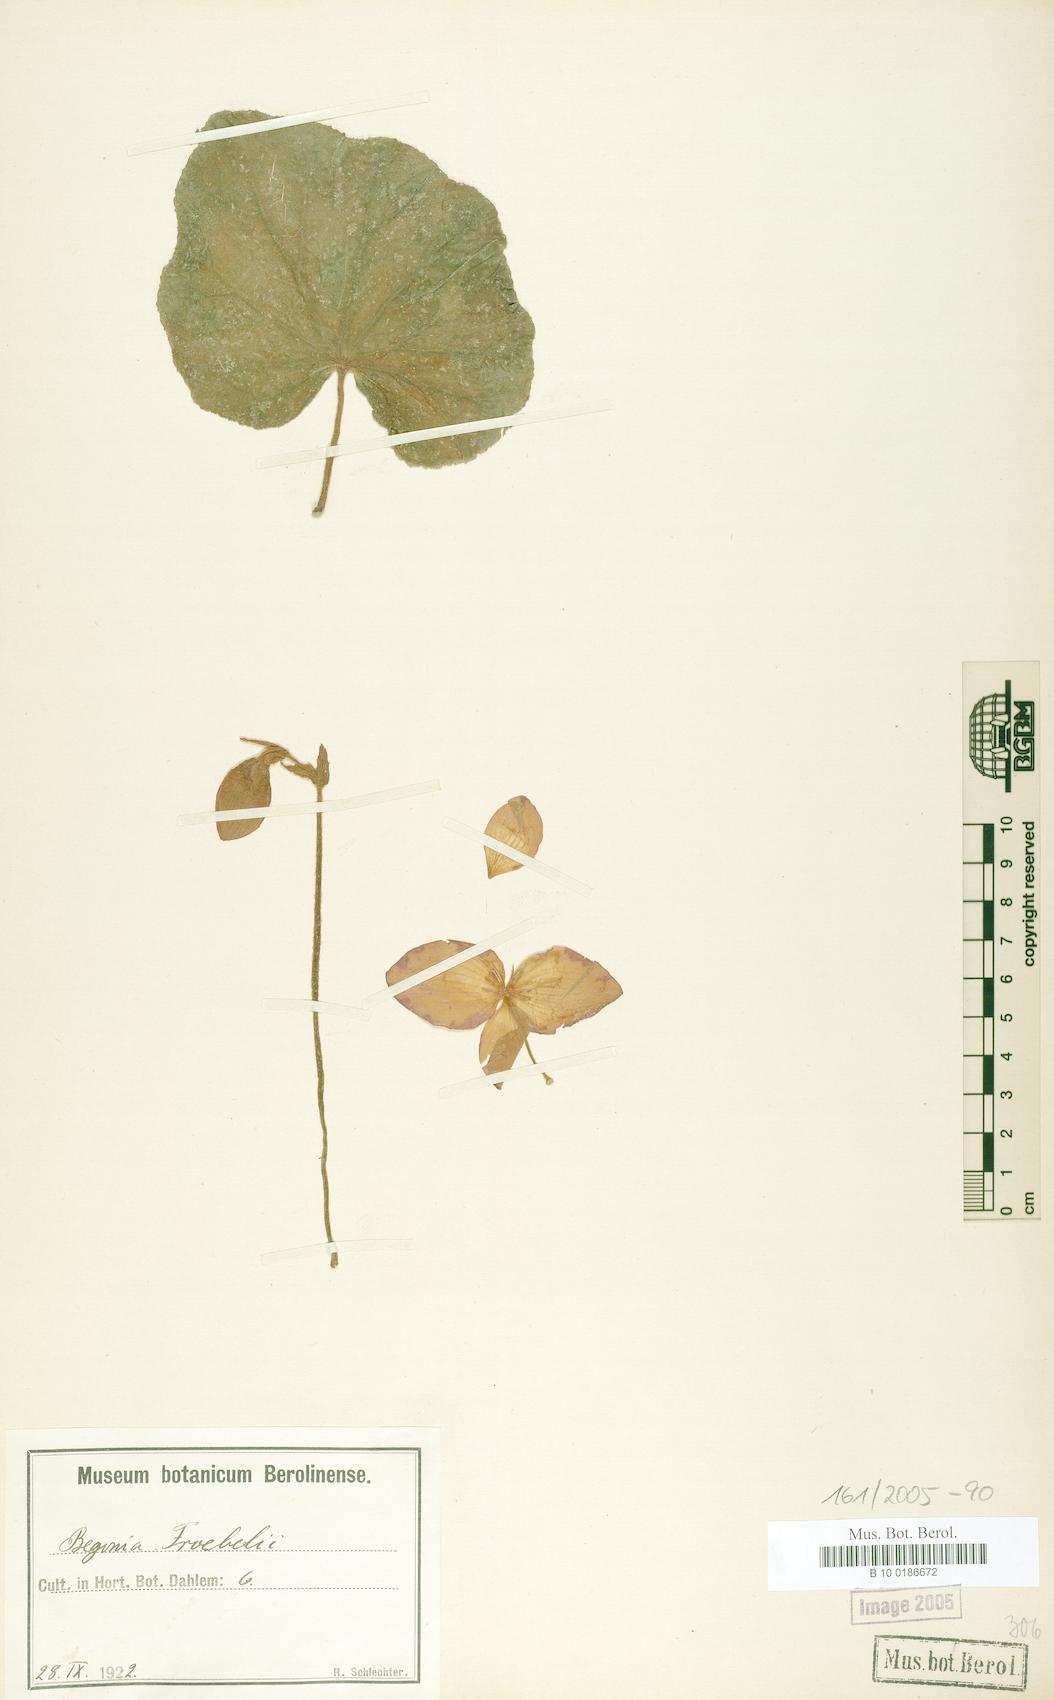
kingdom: Plantae
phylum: Tracheophyta
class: Magnoliopsida
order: Cucurbitales
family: Begoniaceae
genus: Begonia
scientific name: Begonia froebelii
